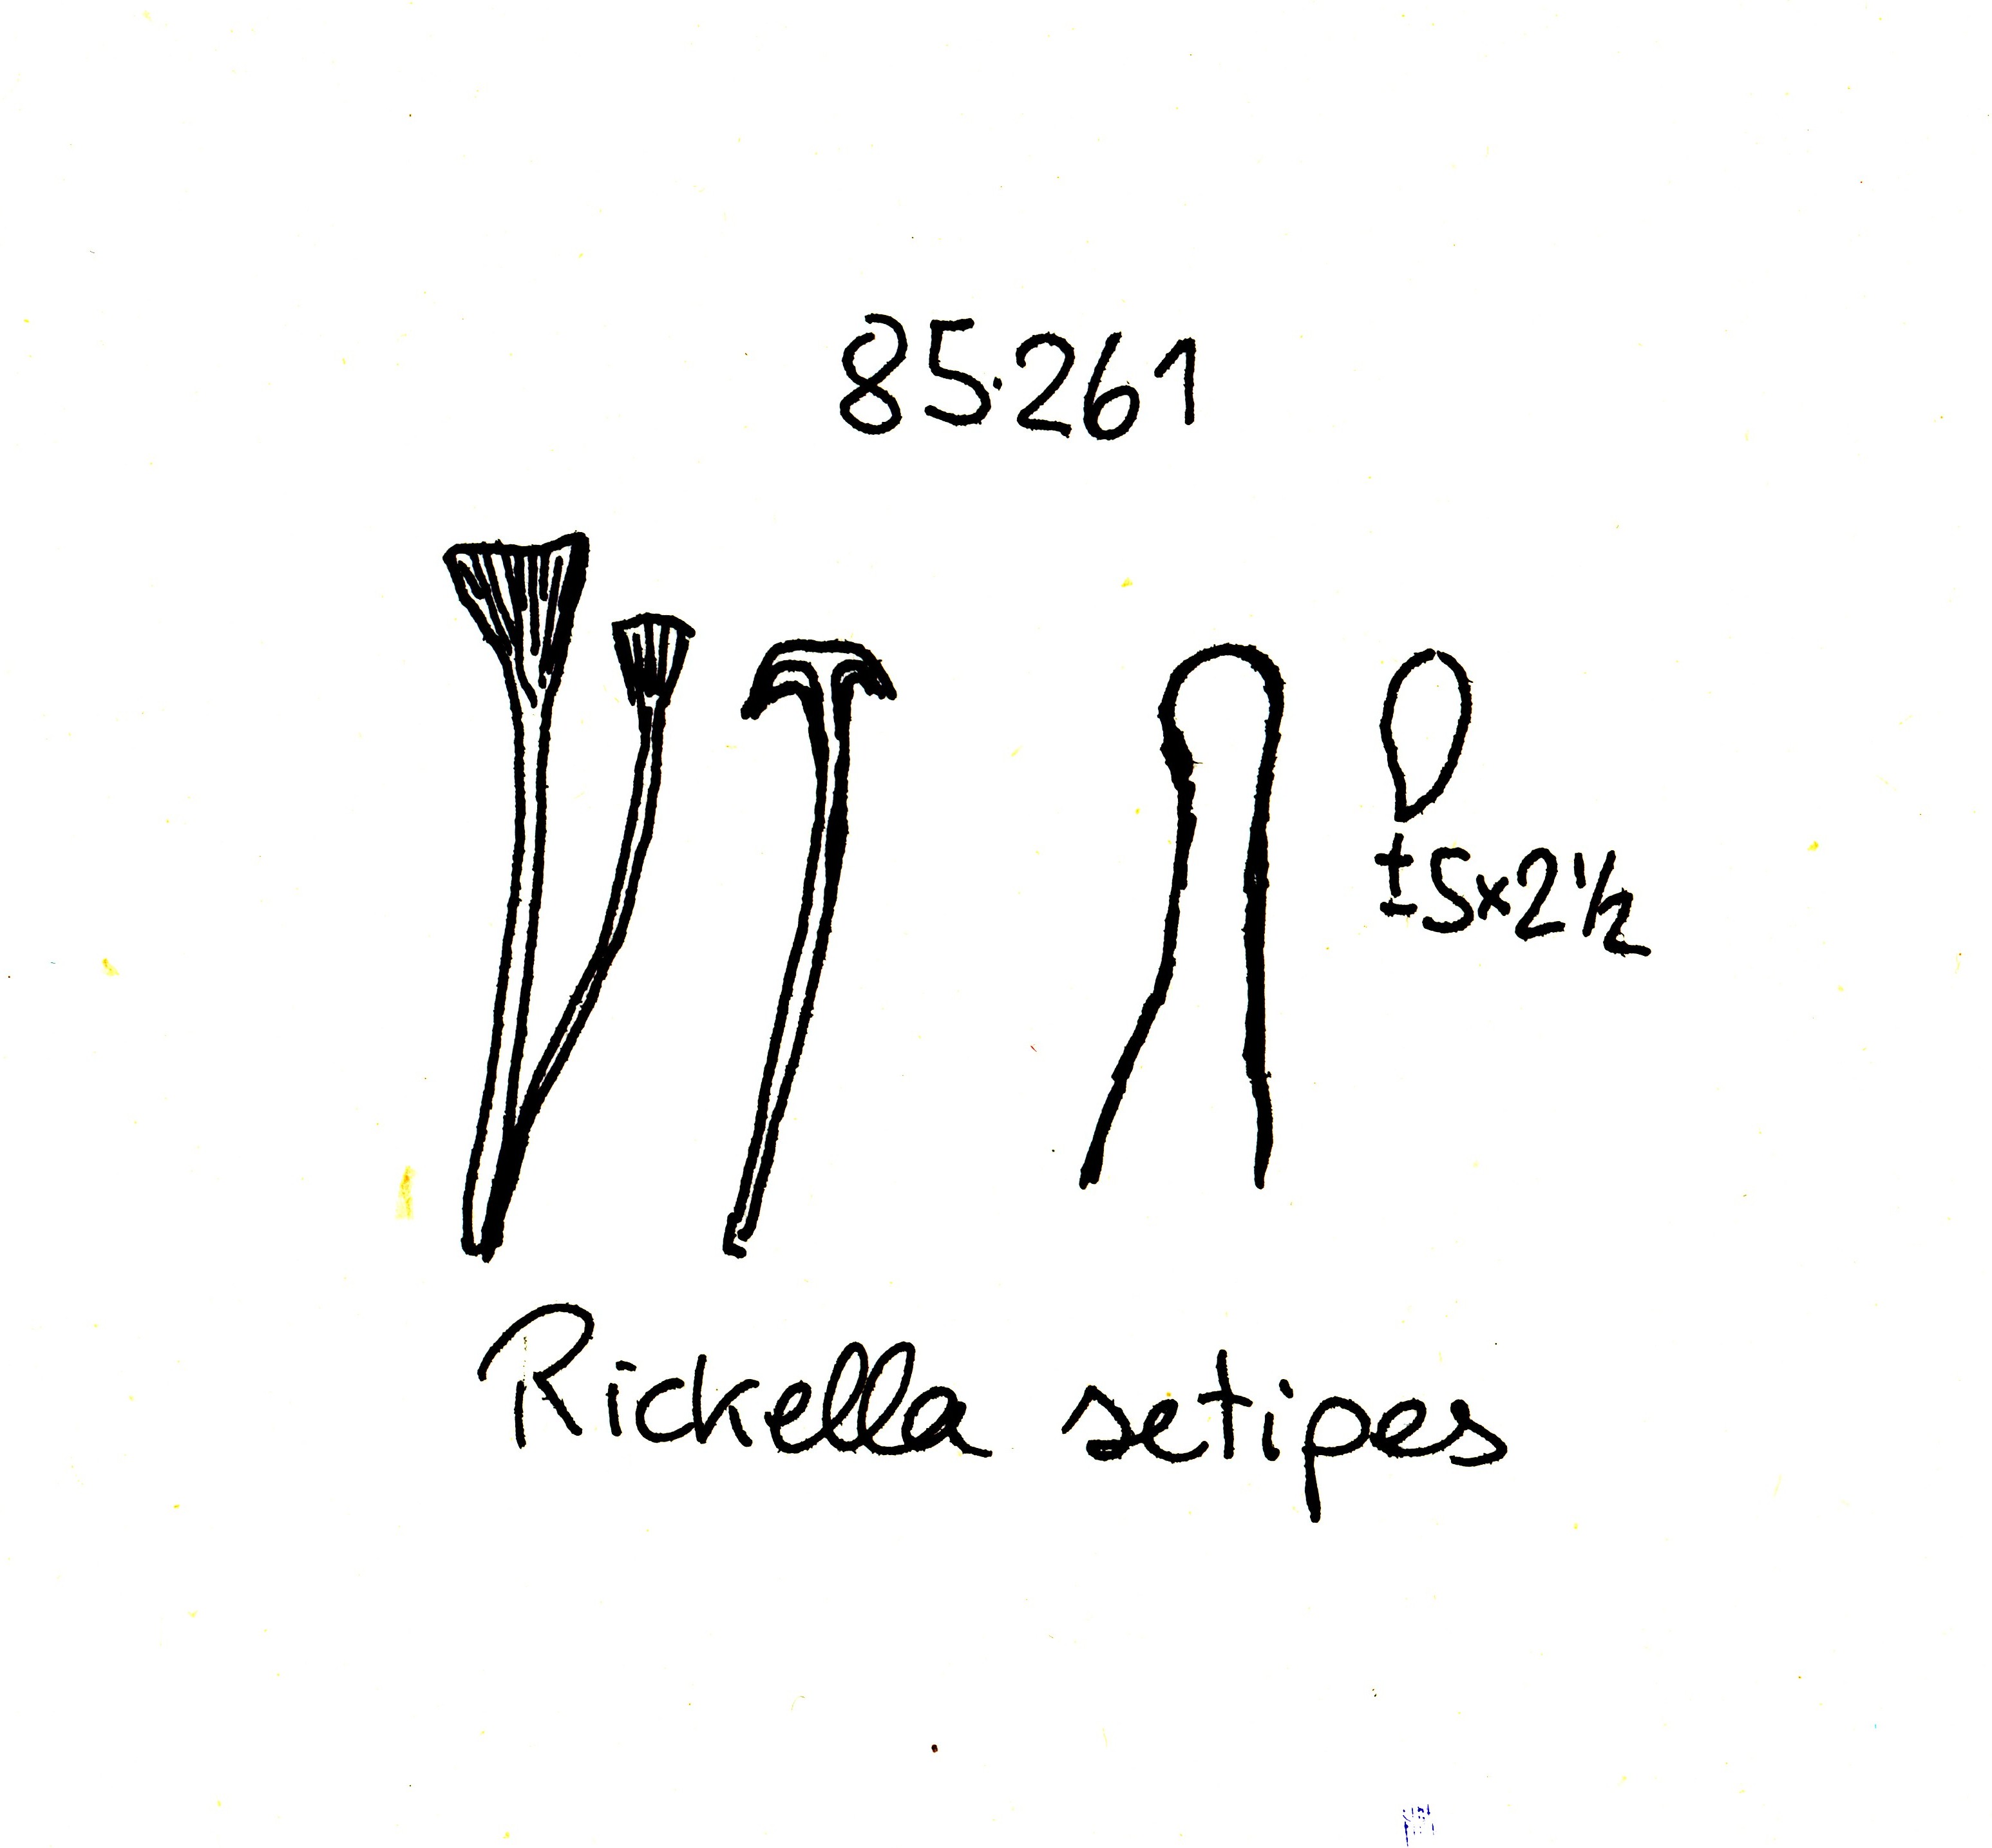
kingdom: Fungi
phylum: Basidiomycota
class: Agaricomycetes
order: Hymenochaetales
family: Rickenellaceae
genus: Rickenella
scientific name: Rickenella swartzii
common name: finstokket mosnavlehat
